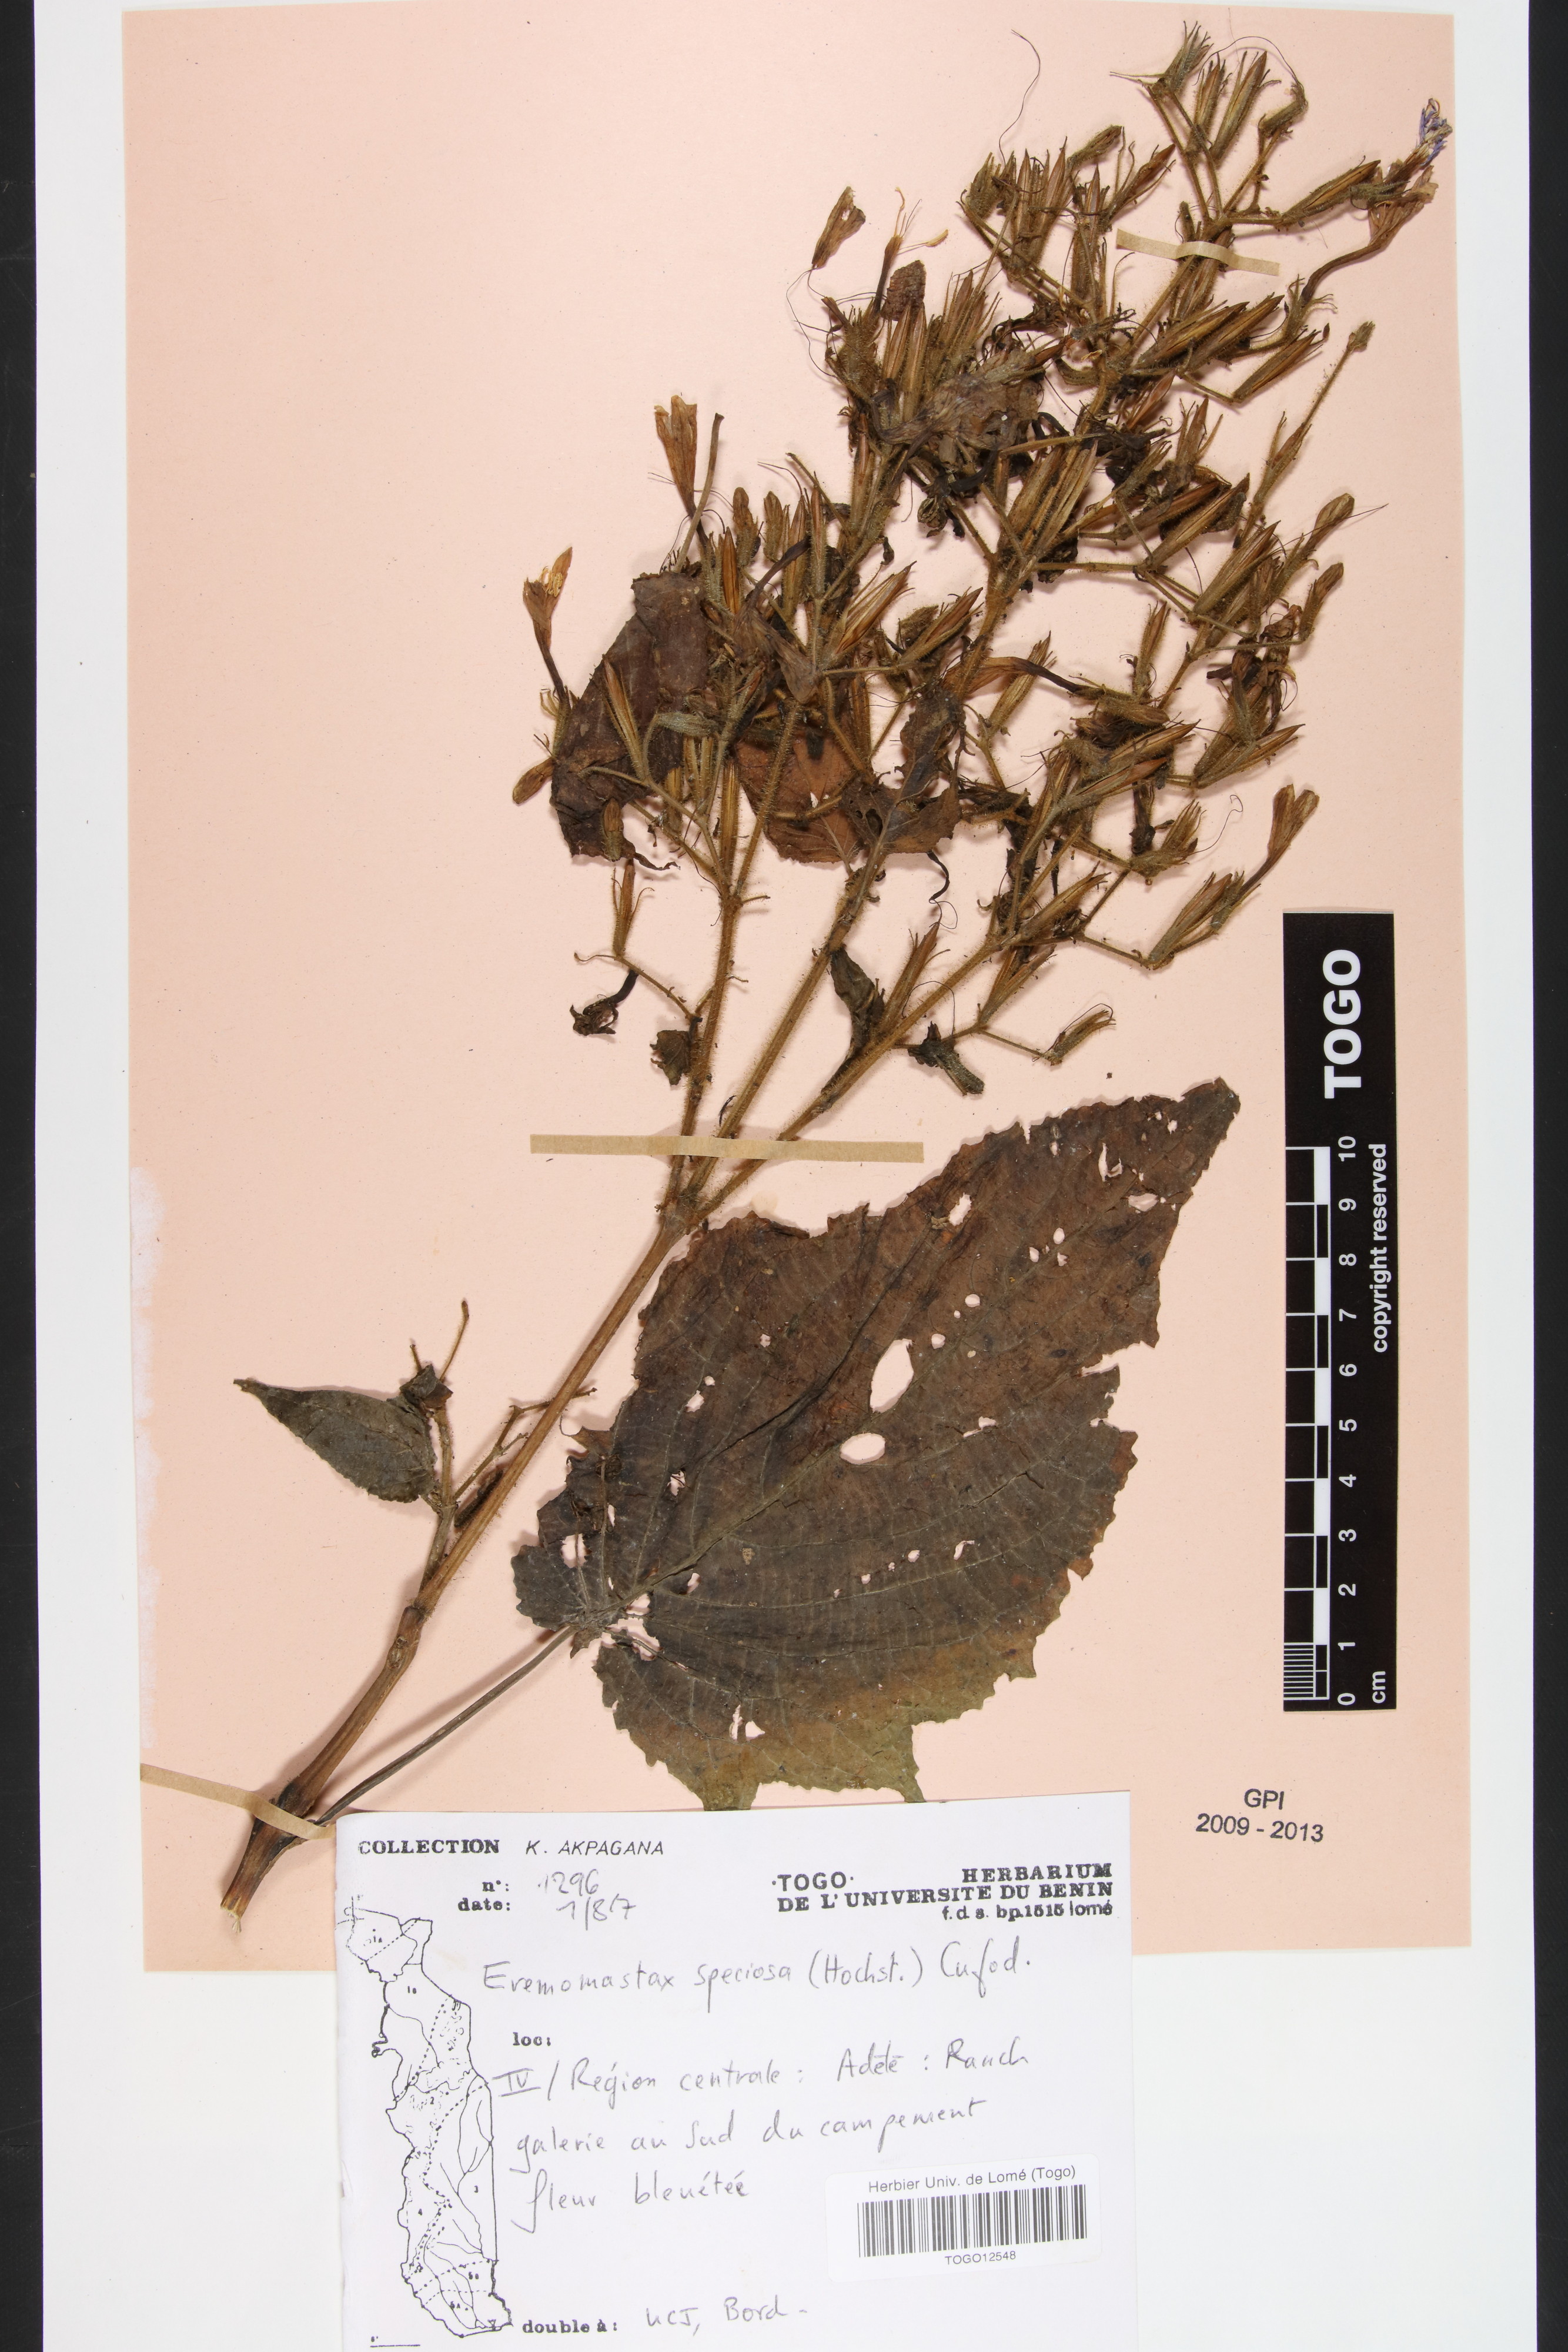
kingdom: Plantae
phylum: Tracheophyta
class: Magnoliopsida
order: Lamiales
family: Acanthaceae
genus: Eremomastax
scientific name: Eremomastax speciosa
